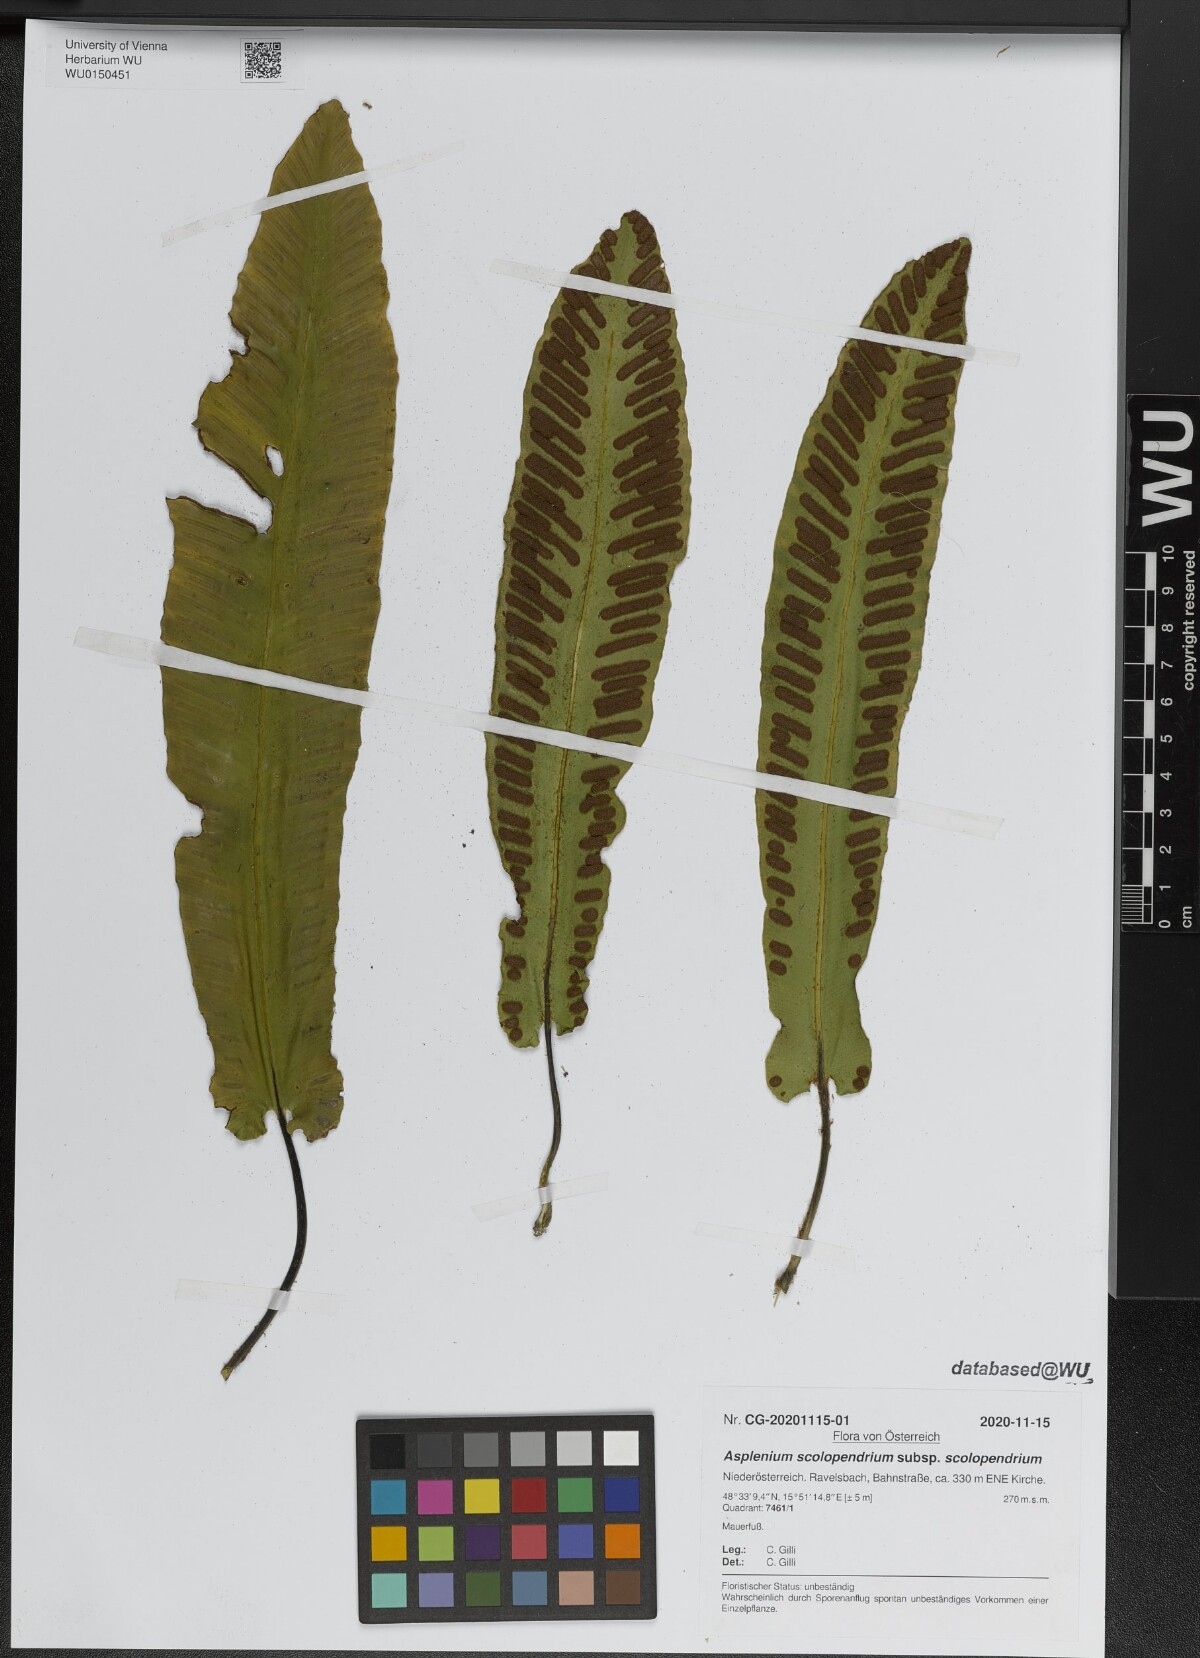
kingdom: Plantae
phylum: Tracheophyta
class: Polypodiopsida
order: Polypodiales
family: Aspleniaceae
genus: Asplenium
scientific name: Asplenium scolopendrium
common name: Hart's-tongue fern
